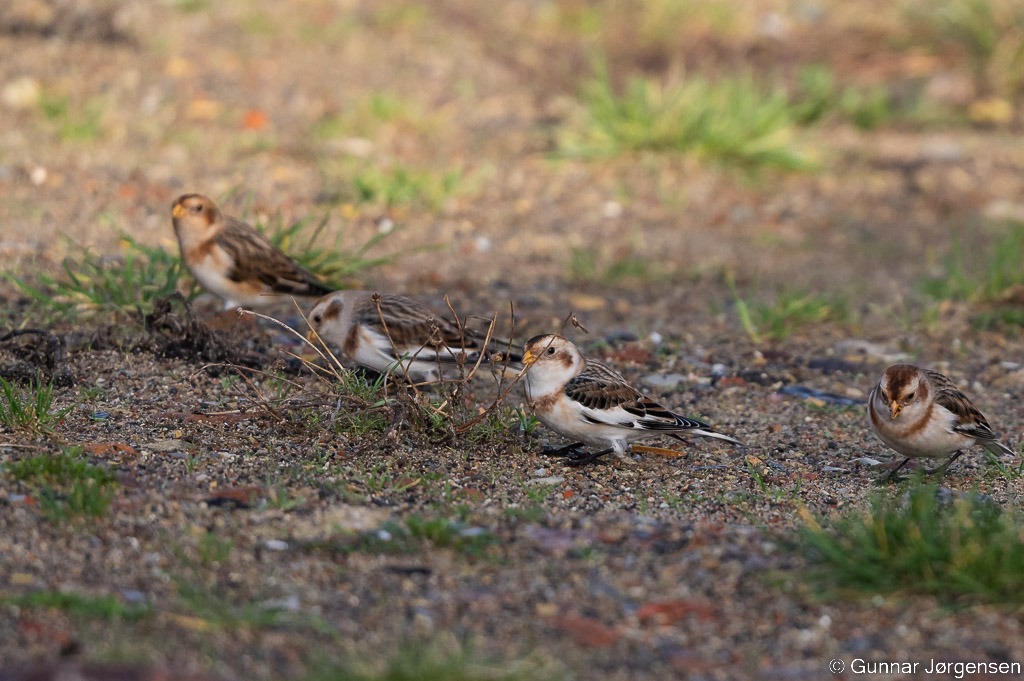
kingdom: Animalia
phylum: Chordata
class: Aves
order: Passeriformes
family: Calcariidae
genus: Plectrophenax
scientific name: Plectrophenax nivalis
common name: Snespurv
